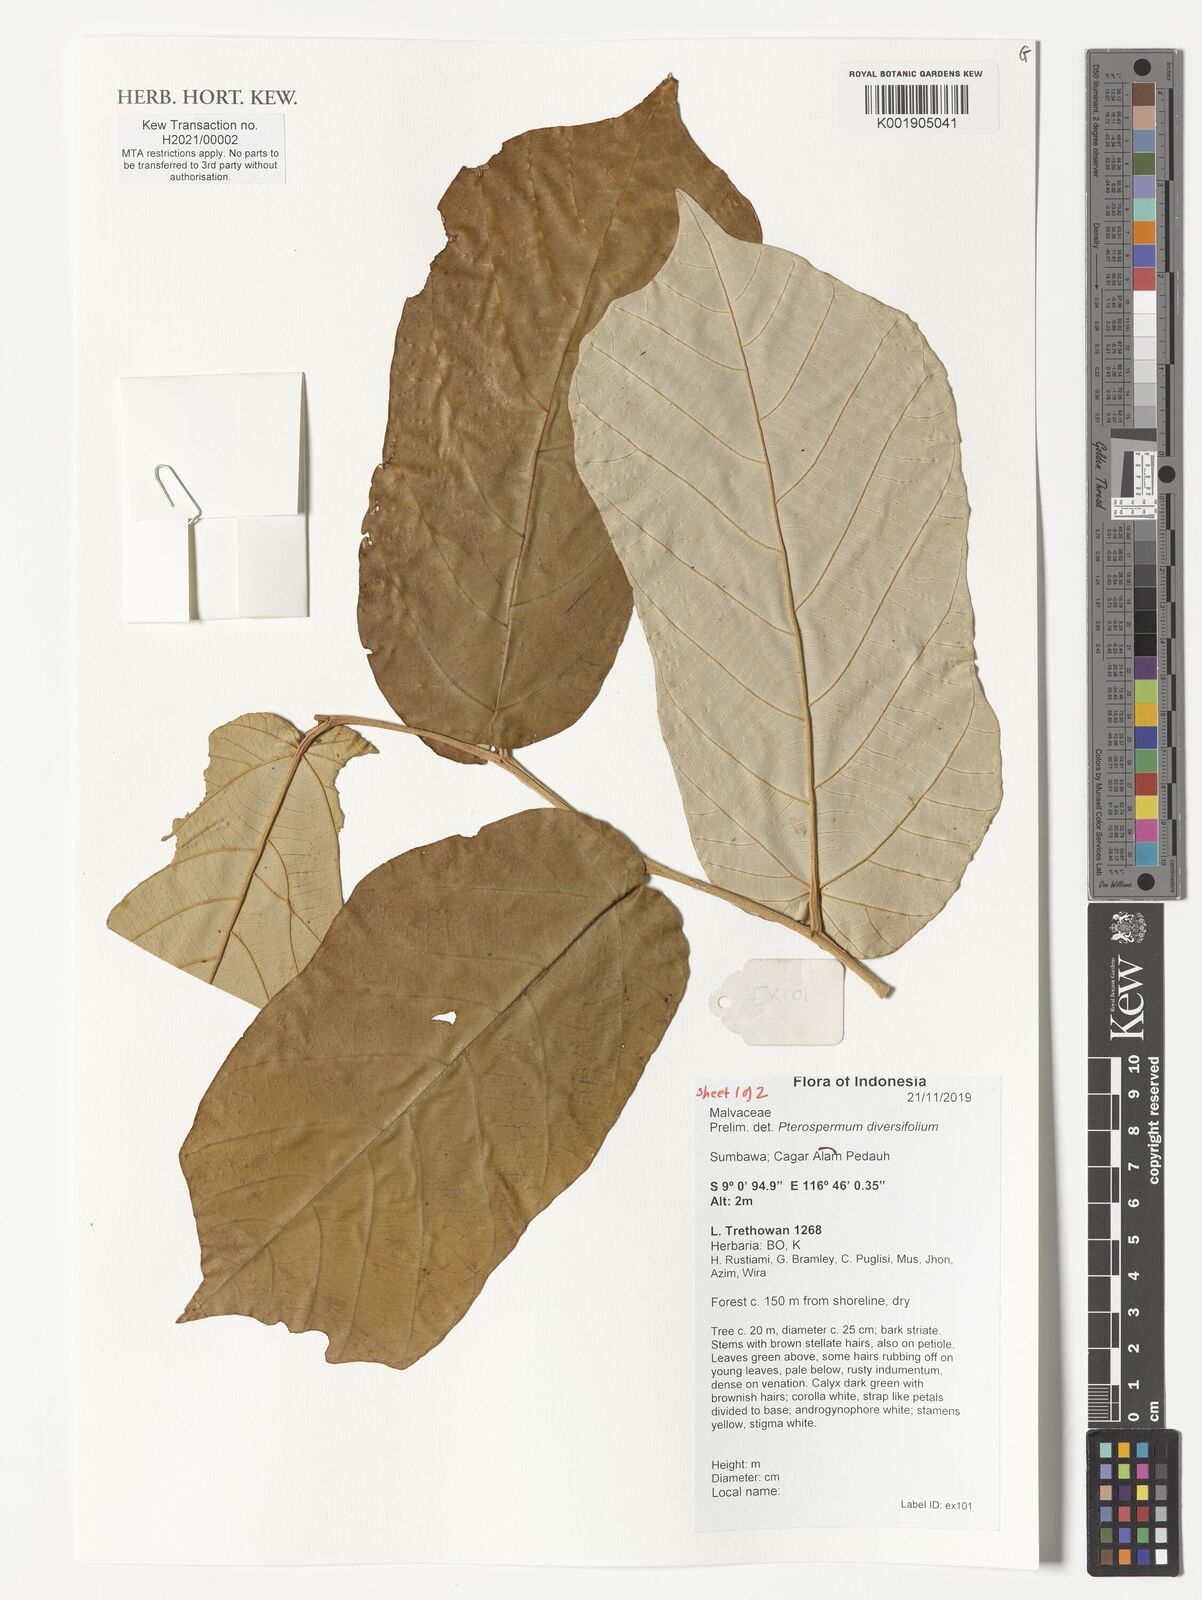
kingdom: Plantae
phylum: Tracheophyta
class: Magnoliopsida
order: Malvales
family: Malvaceae
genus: Pterospermum
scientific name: Pterospermum diversifolium
